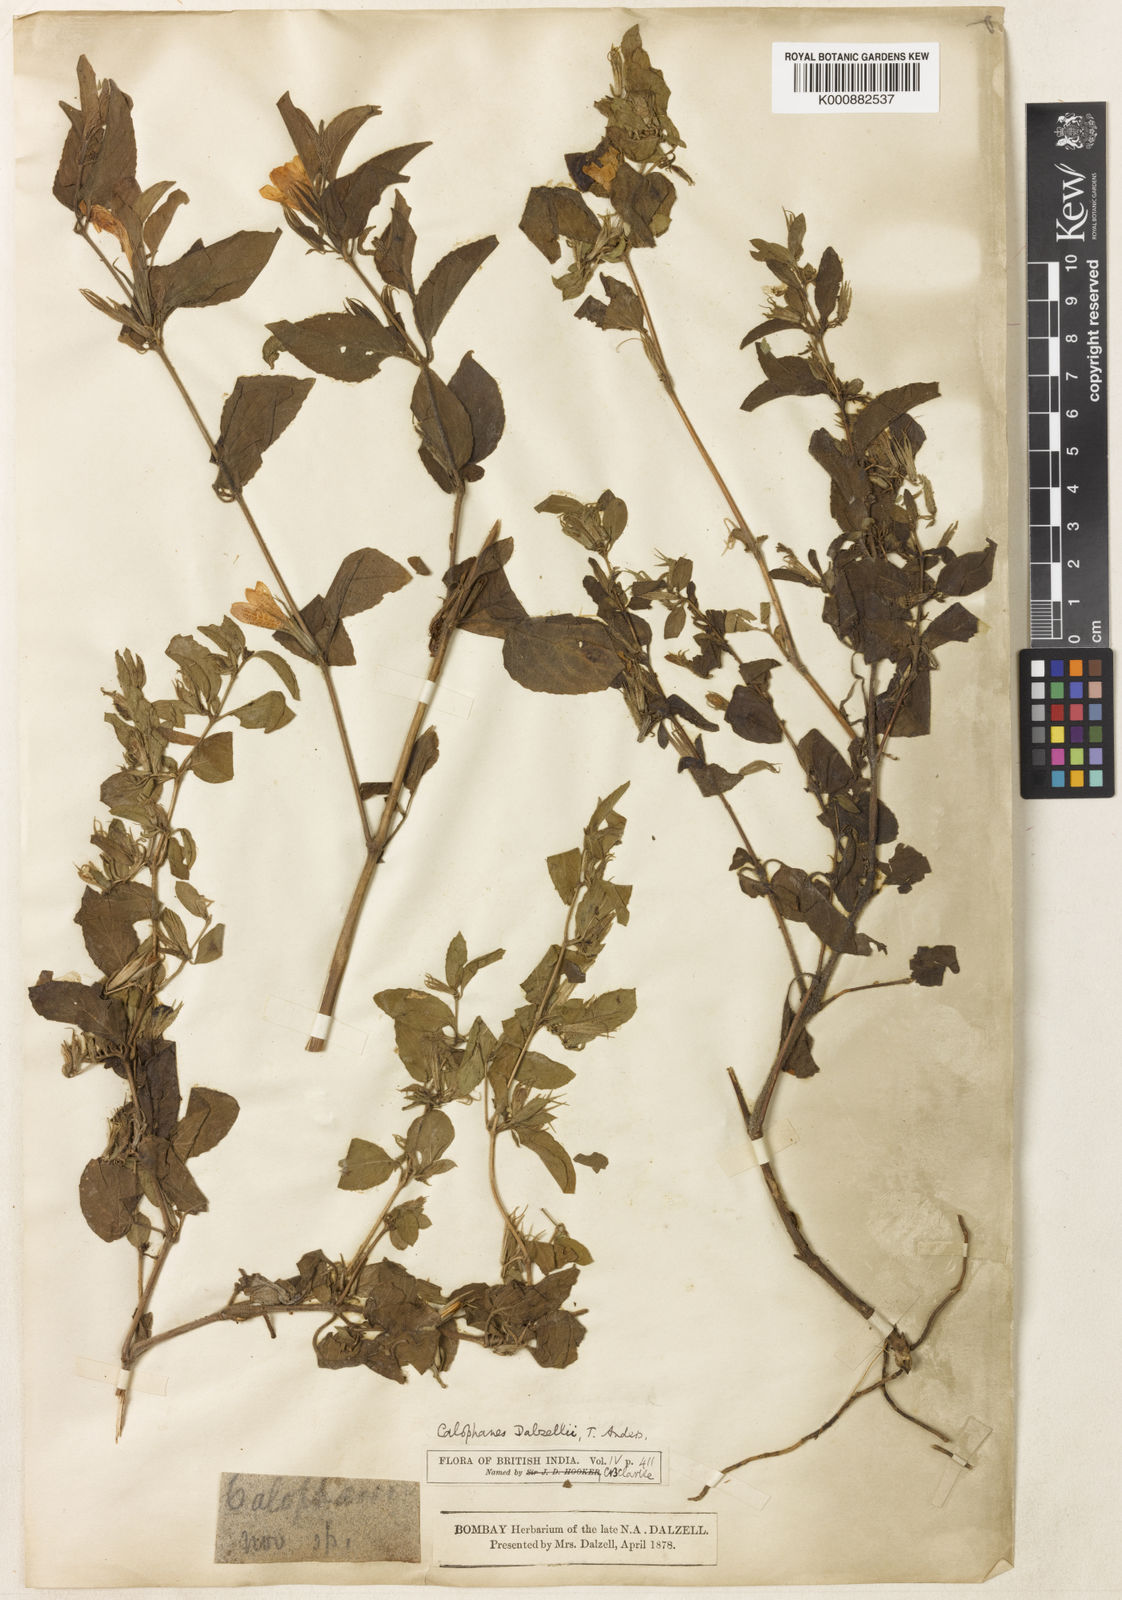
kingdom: Plantae
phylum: Tracheophyta
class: Magnoliopsida
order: Lamiales
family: Acanthaceae
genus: Dyschoriste
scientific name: Dyschoriste
